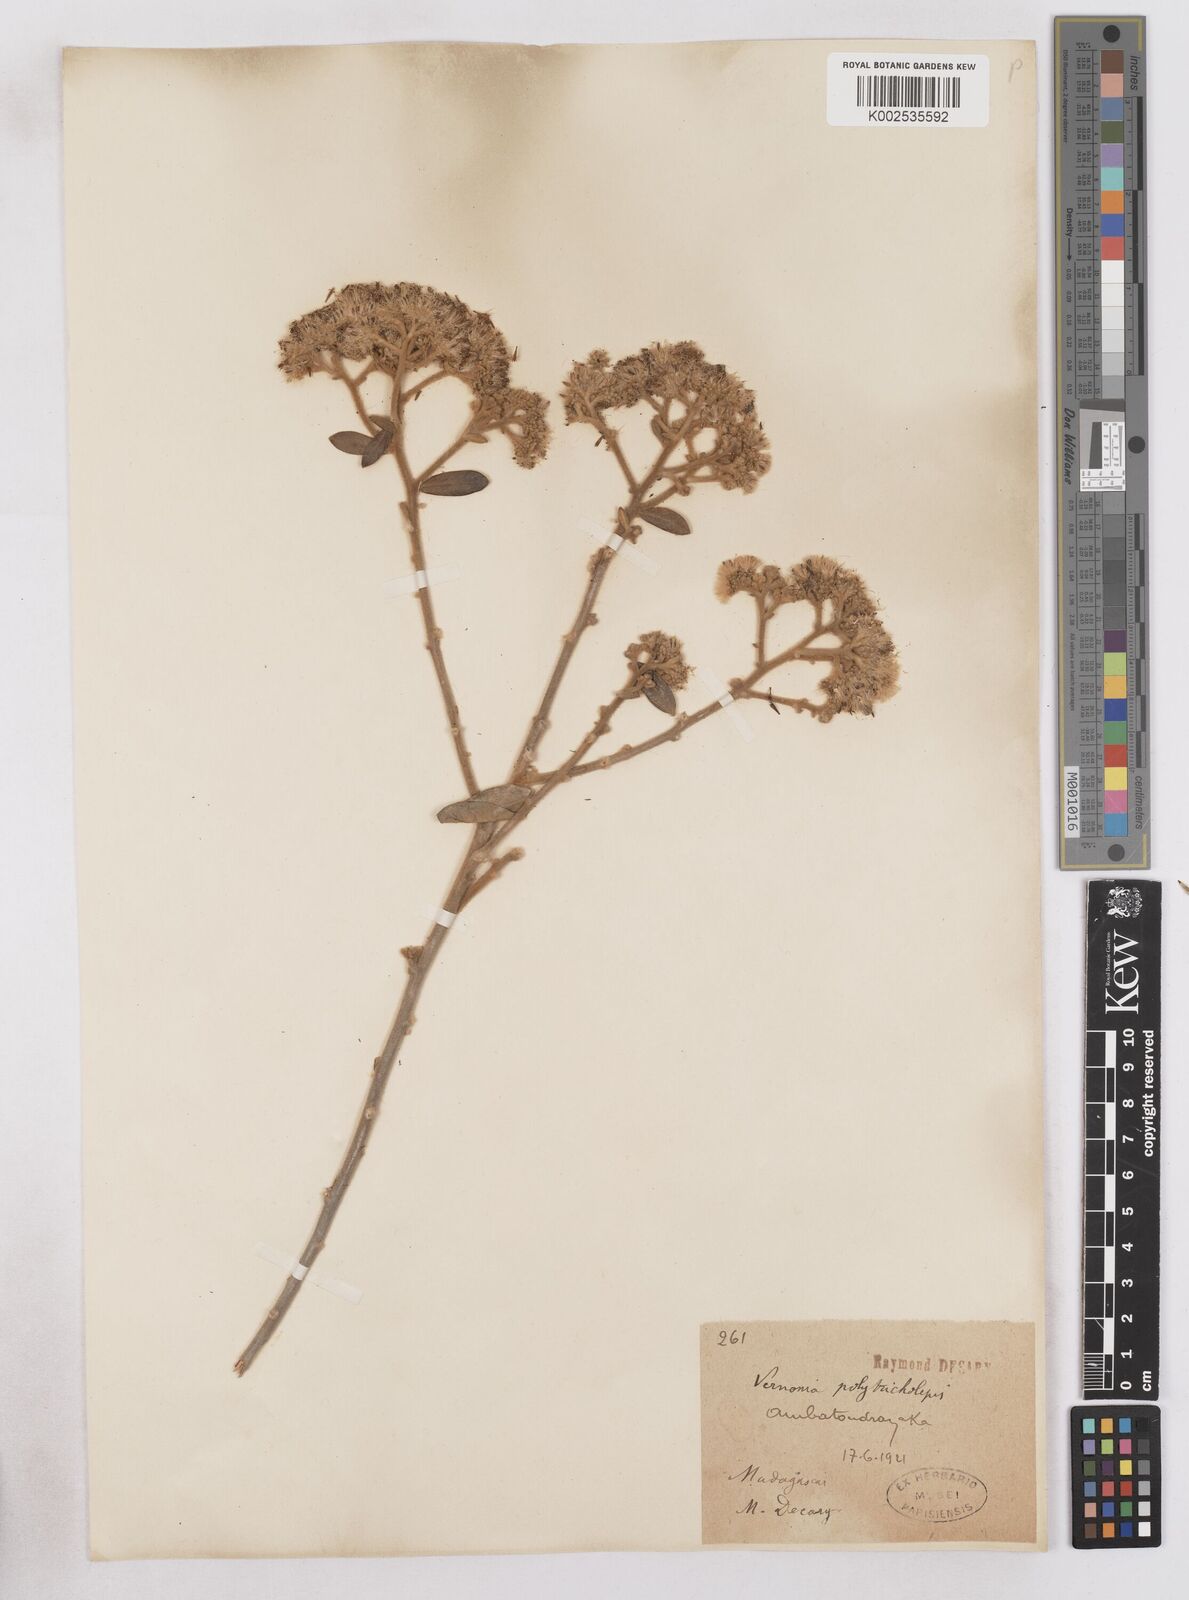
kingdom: Plantae
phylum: Tracheophyta
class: Magnoliopsida
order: Asterales
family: Asteraceae
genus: Distephanus
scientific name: Distephanus polytricholepis
